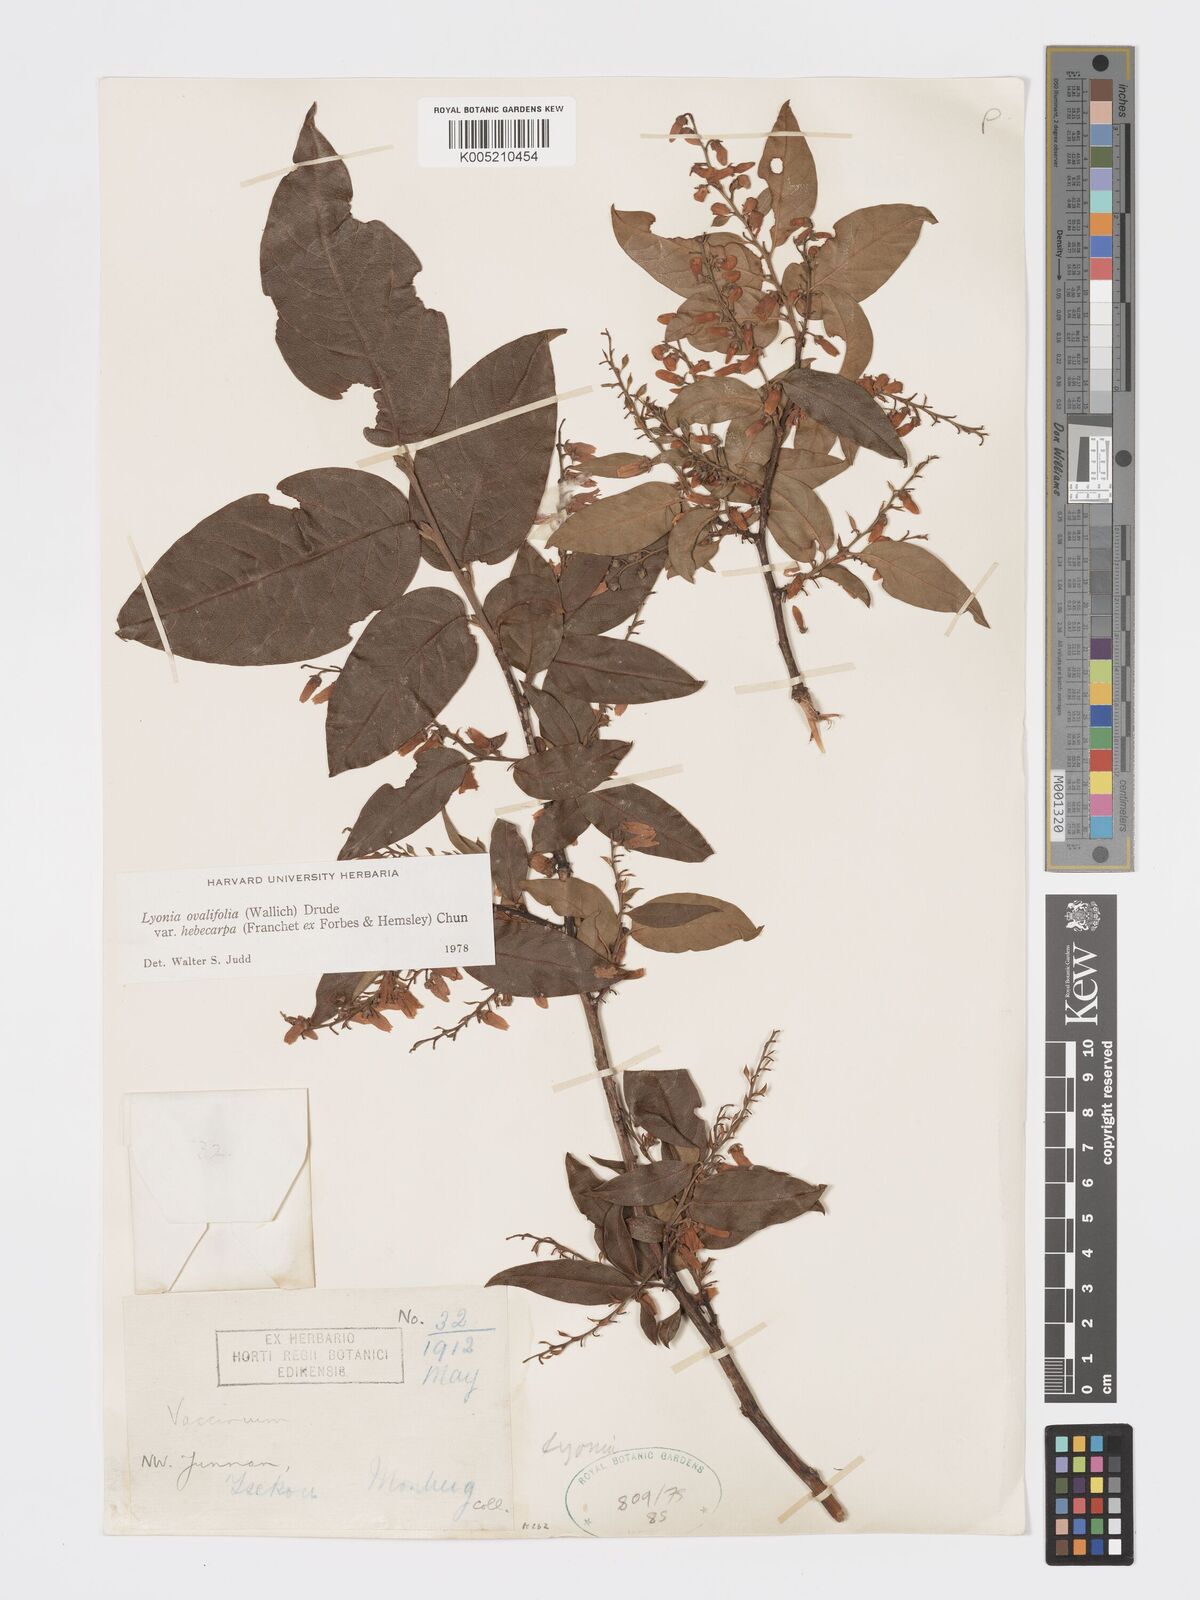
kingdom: Plantae
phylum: Tracheophyta
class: Magnoliopsida
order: Ericales
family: Ericaceae
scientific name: Ericaceae
